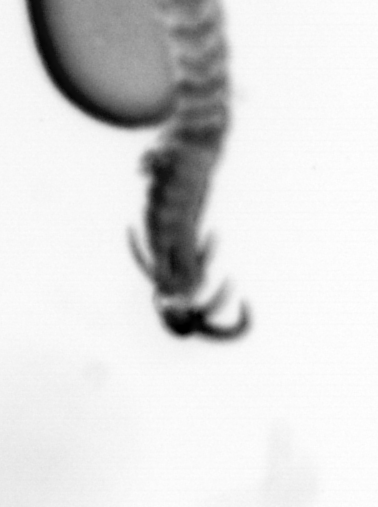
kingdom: Animalia
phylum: Annelida
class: Polychaeta
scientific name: Polychaeta
